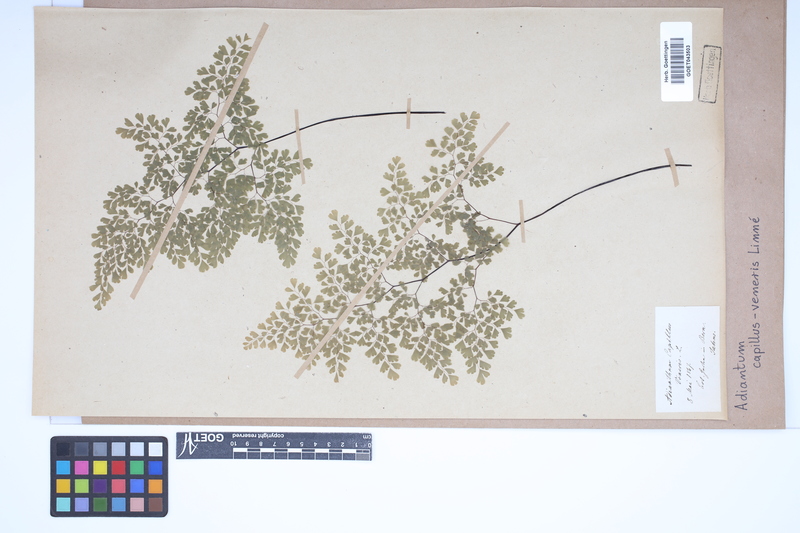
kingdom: Plantae
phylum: Tracheophyta
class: Polypodiopsida
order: Polypodiales
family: Pteridaceae
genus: Adiantum
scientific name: Adiantum capillus-veneris
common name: Maidenhair fern
